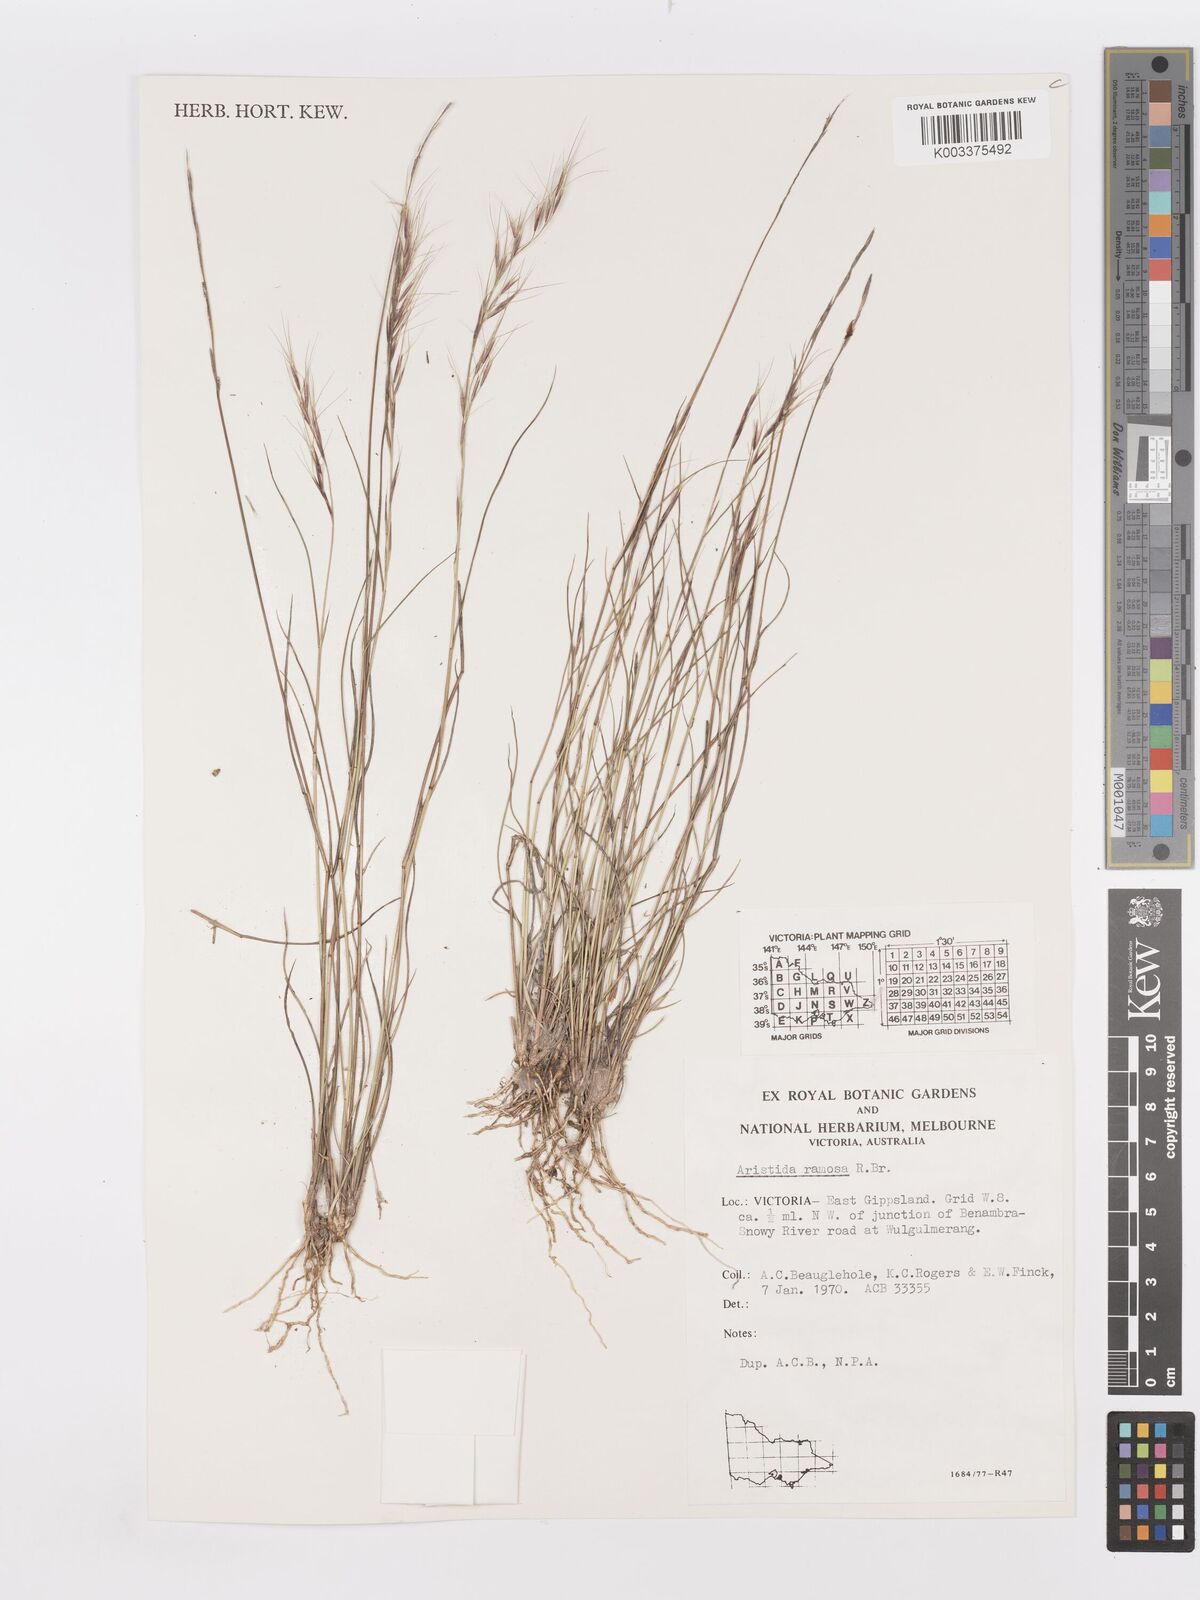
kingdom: Plantae
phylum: Tracheophyta
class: Liliopsida
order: Poales
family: Poaceae
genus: Aristida
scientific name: Aristida ramosa
